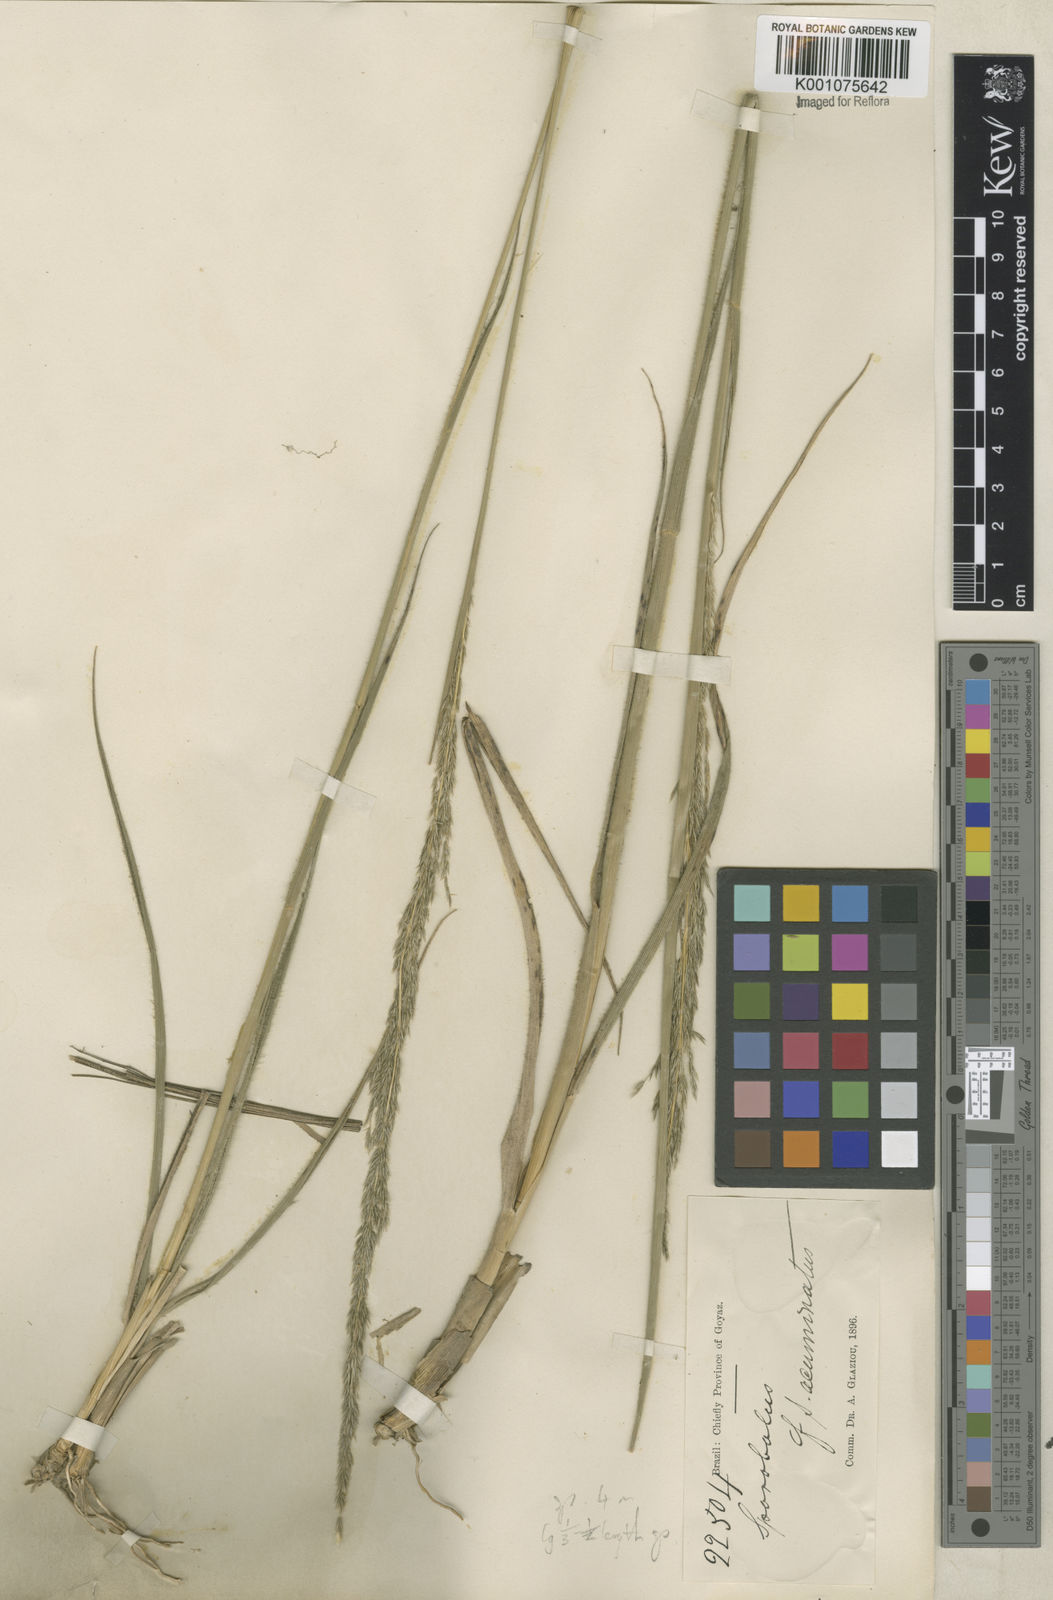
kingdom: Plantae
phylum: Tracheophyta
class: Liliopsida
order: Poales
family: Poaceae
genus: Sporobolus
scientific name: Sporobolus aeneus
